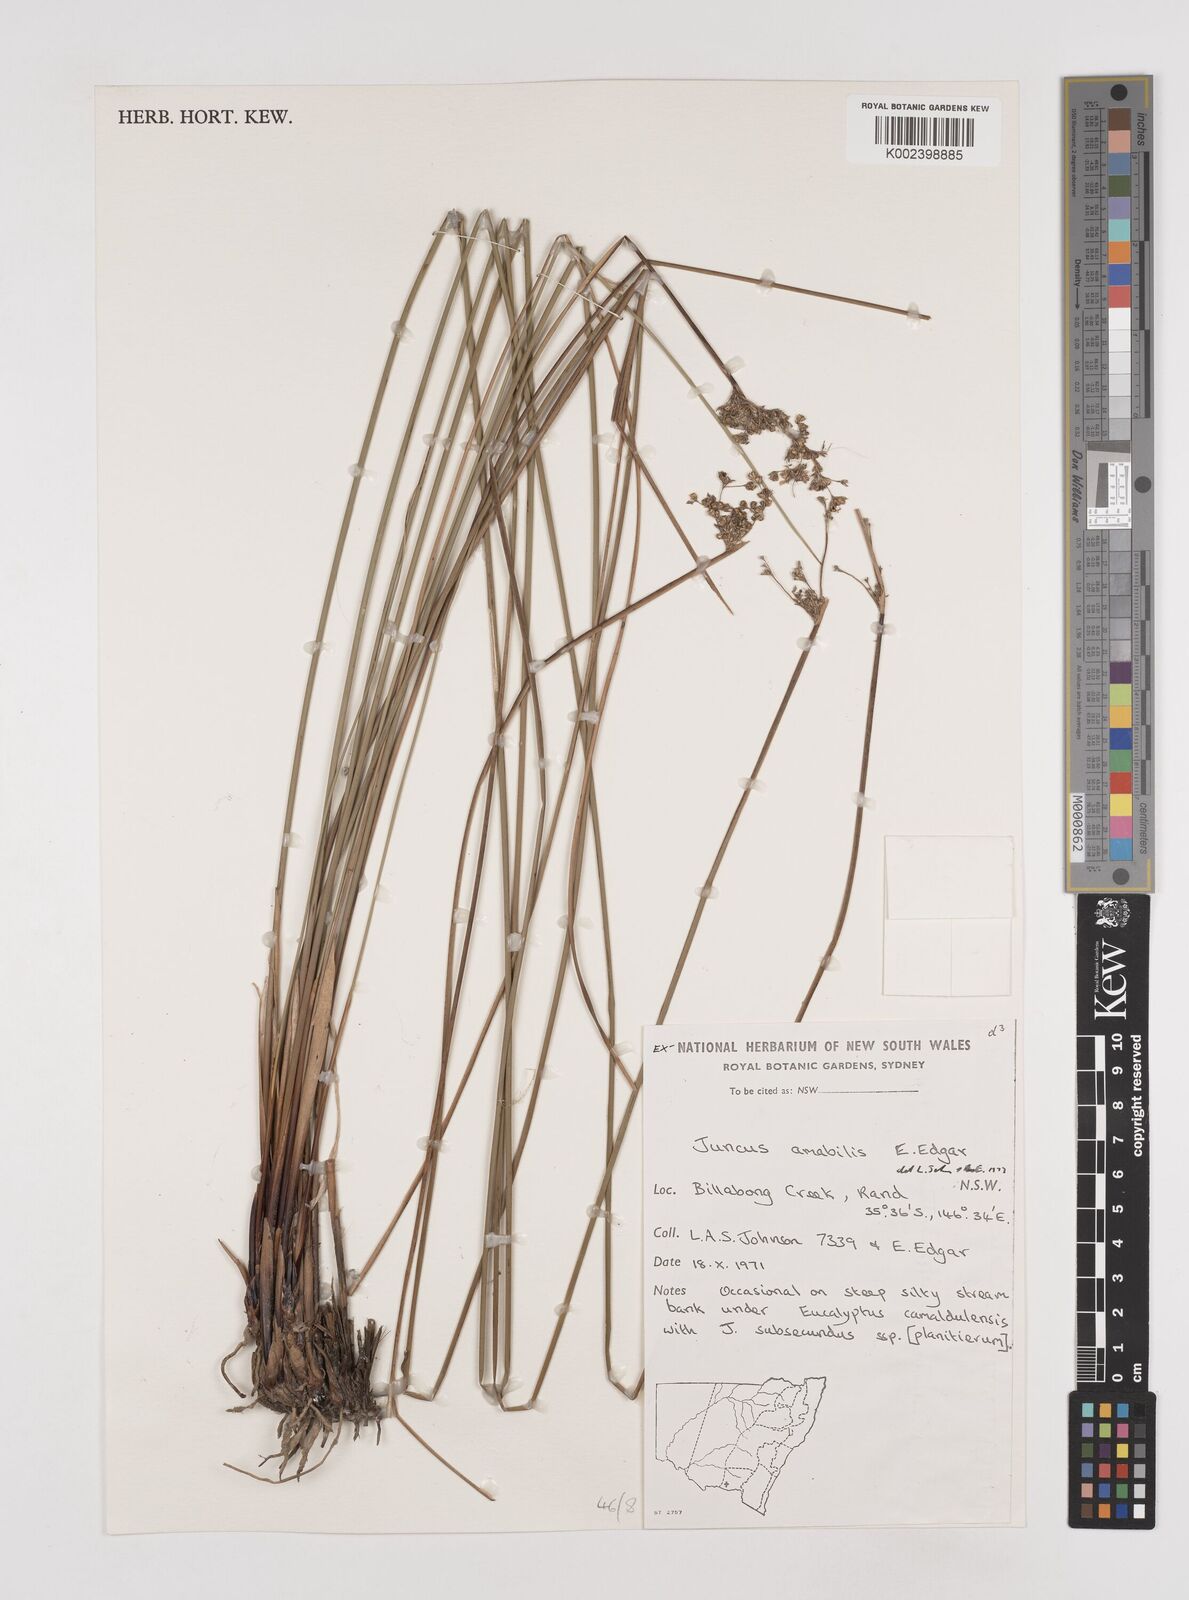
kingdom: Plantae
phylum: Tracheophyta
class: Liliopsida
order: Poales
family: Juncaceae
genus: Juncus
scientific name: Juncus amabilis
